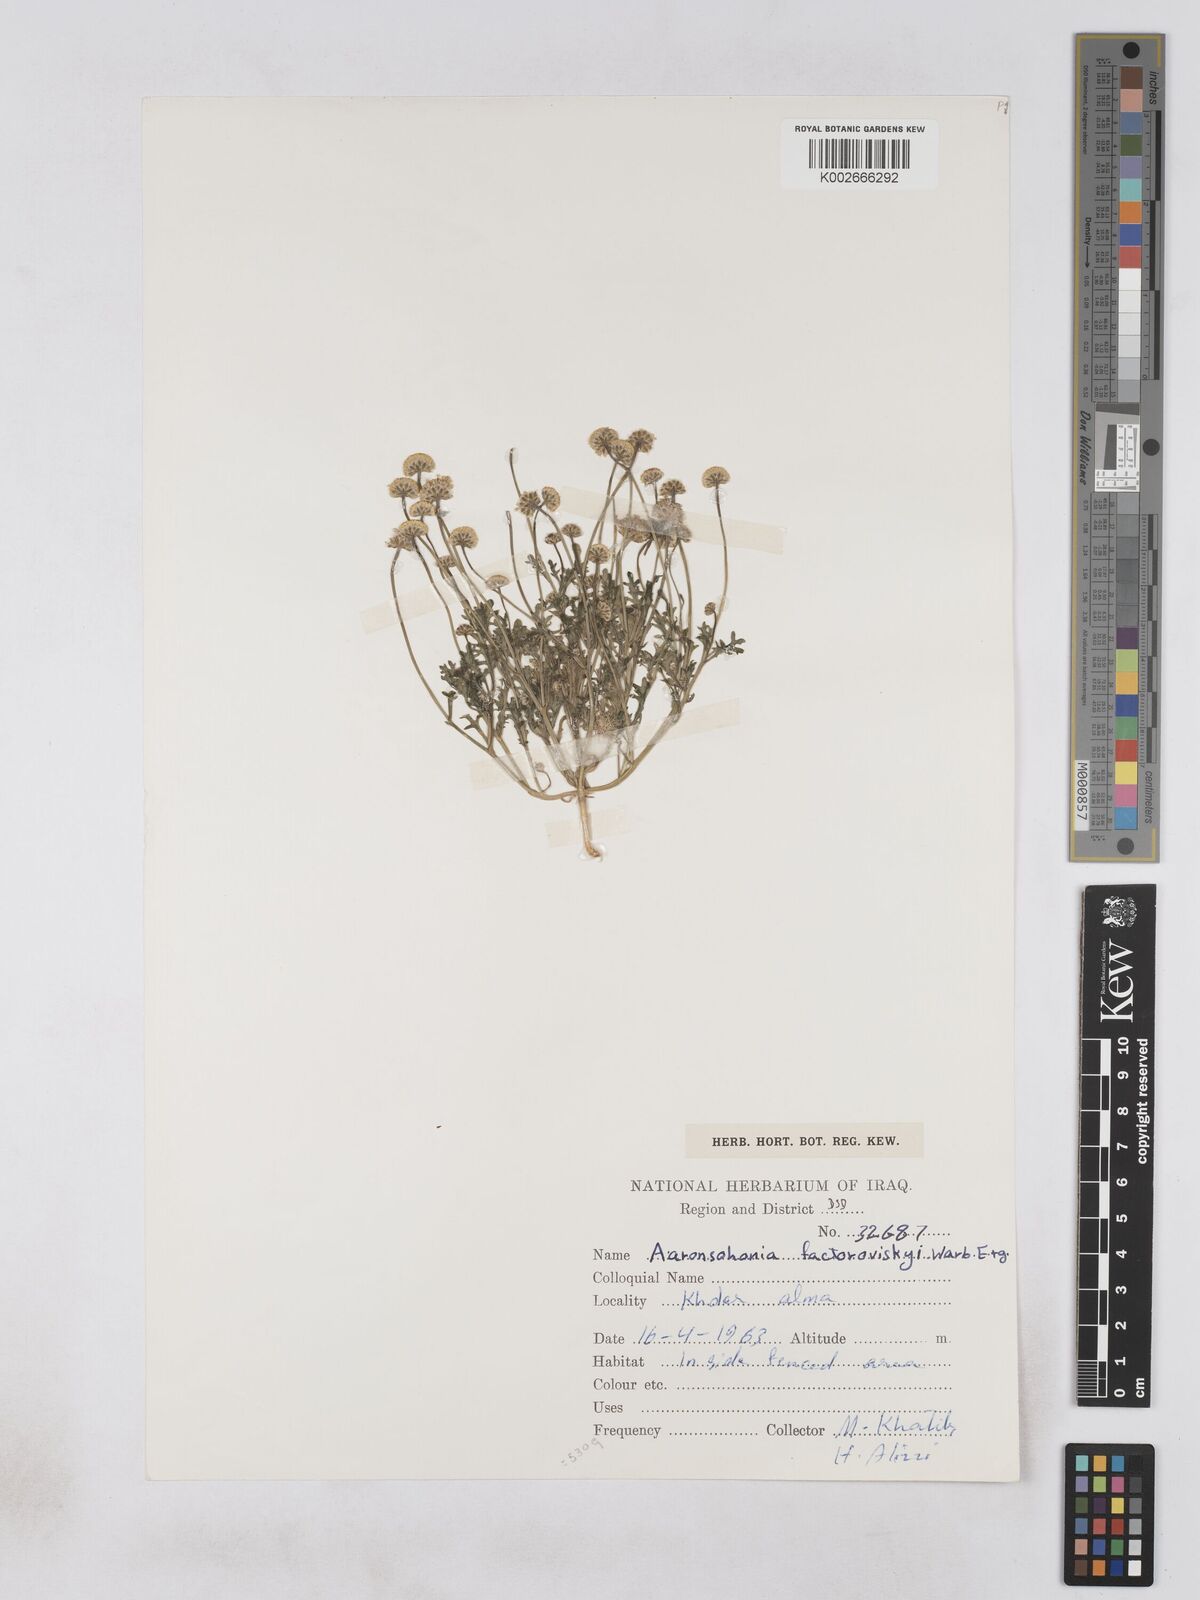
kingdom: Plantae
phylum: Tracheophyta
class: Magnoliopsida
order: Asterales
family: Asteraceae
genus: Otoglyphis
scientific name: Otoglyphis factorovskyi
